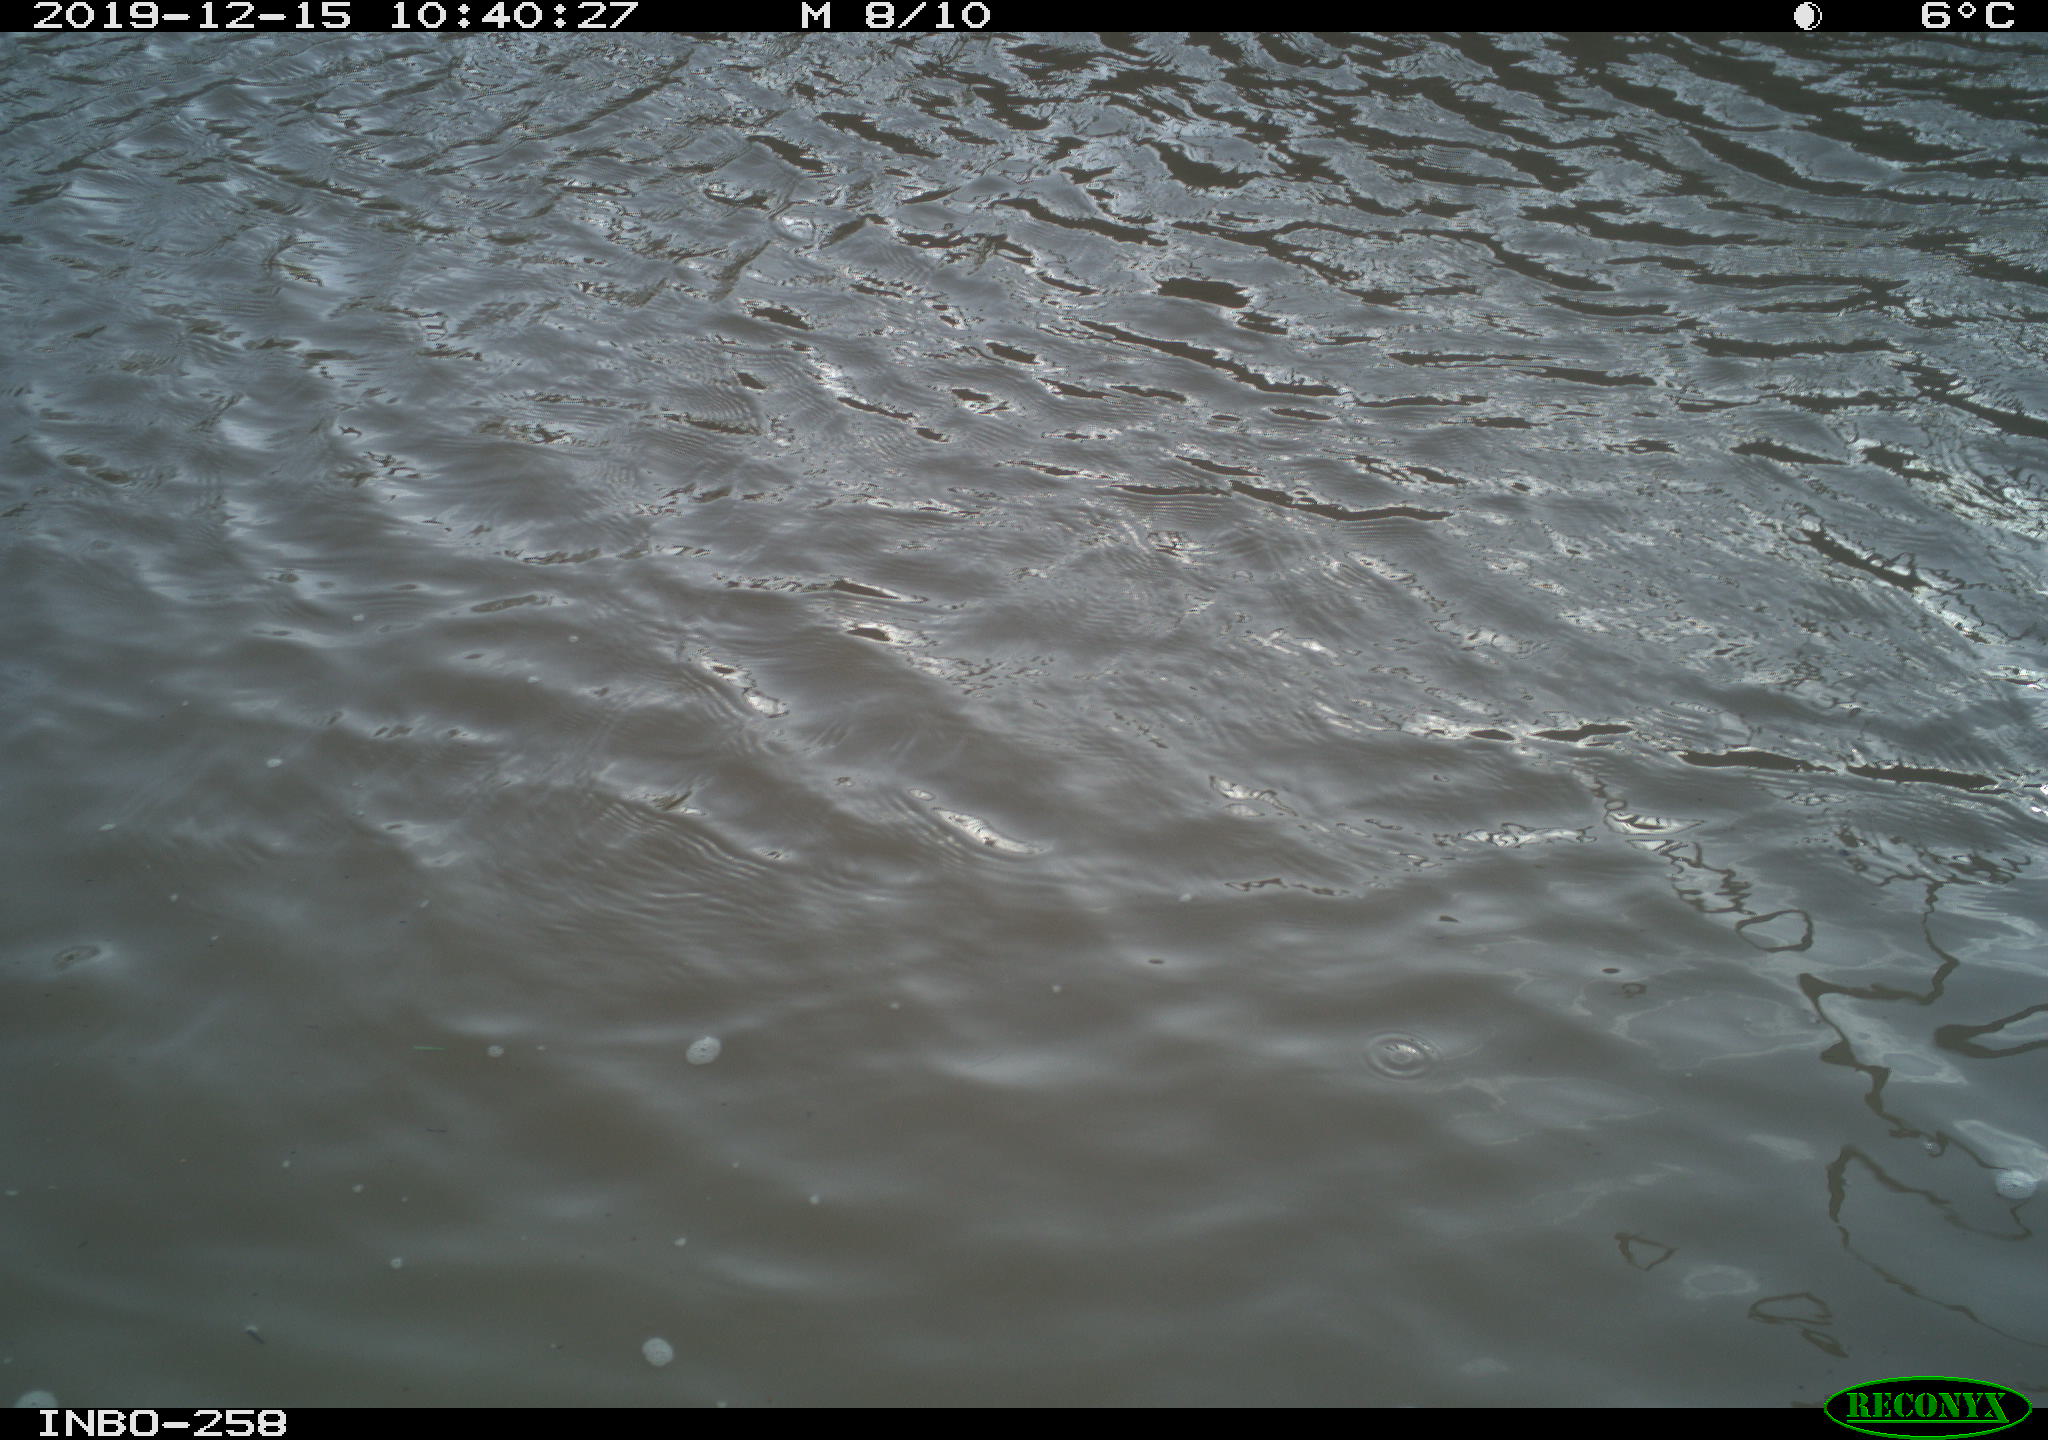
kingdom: Animalia
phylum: Chordata
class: Aves
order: Gruiformes
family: Rallidae
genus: Gallinula
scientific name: Gallinula chloropus
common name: Common moorhen
